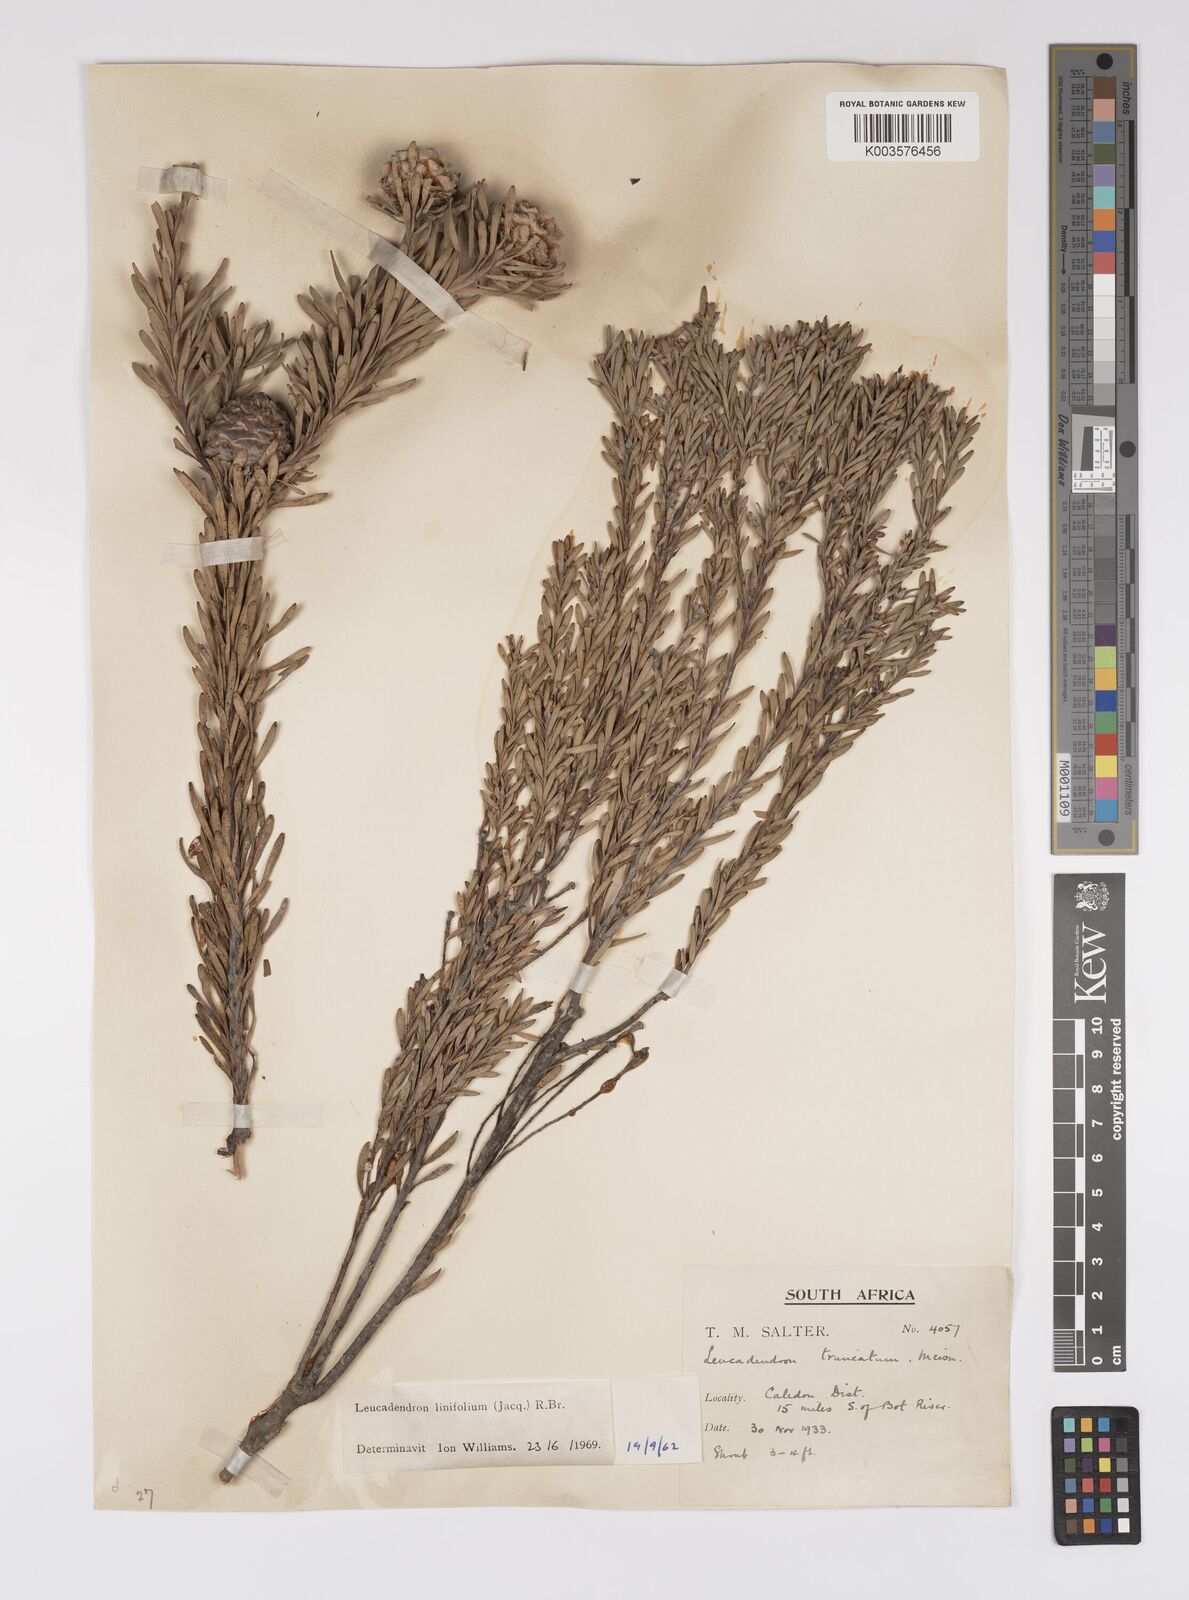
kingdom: Plantae
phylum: Tracheophyta
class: Magnoliopsida
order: Proteales
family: Proteaceae
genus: Leucadendron
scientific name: Leucadendron linifolium
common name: Line-leaf conebush
